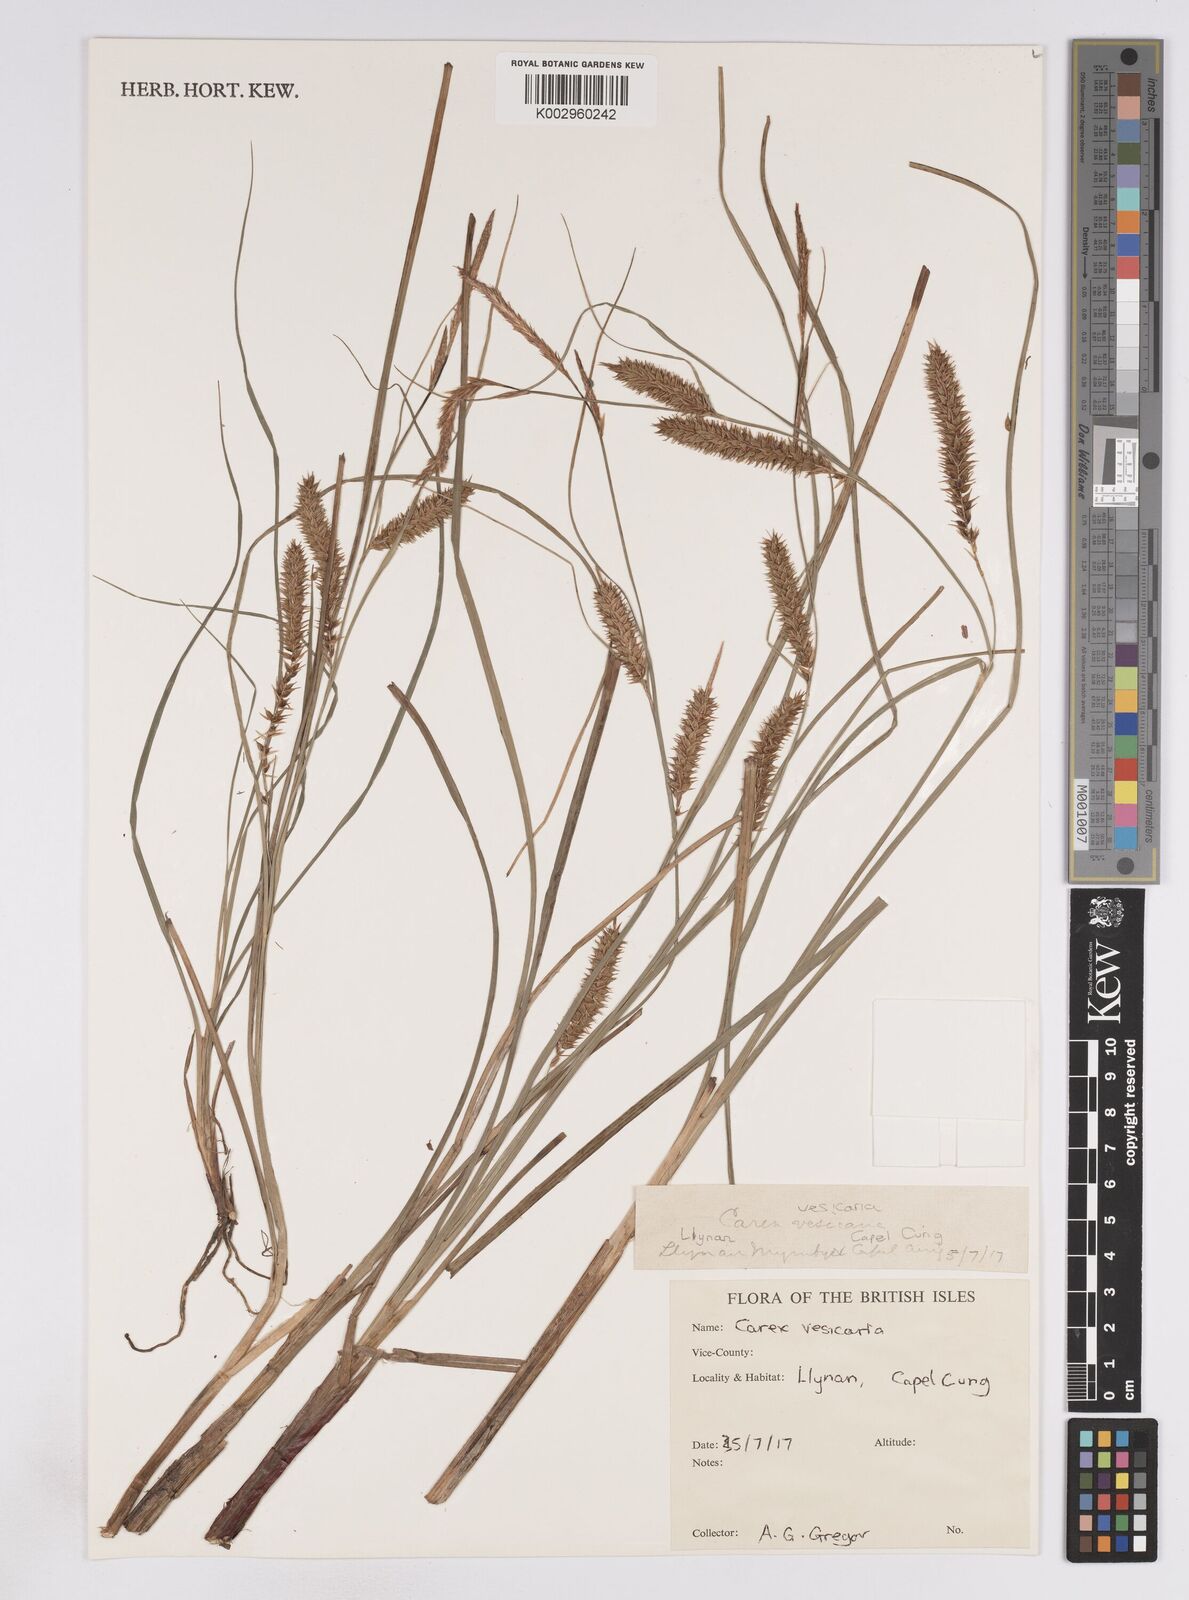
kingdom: Plantae
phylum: Tracheophyta
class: Liliopsida
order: Poales
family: Cyperaceae
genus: Carex
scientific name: Carex vesicaria
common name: Bladder-sedge
